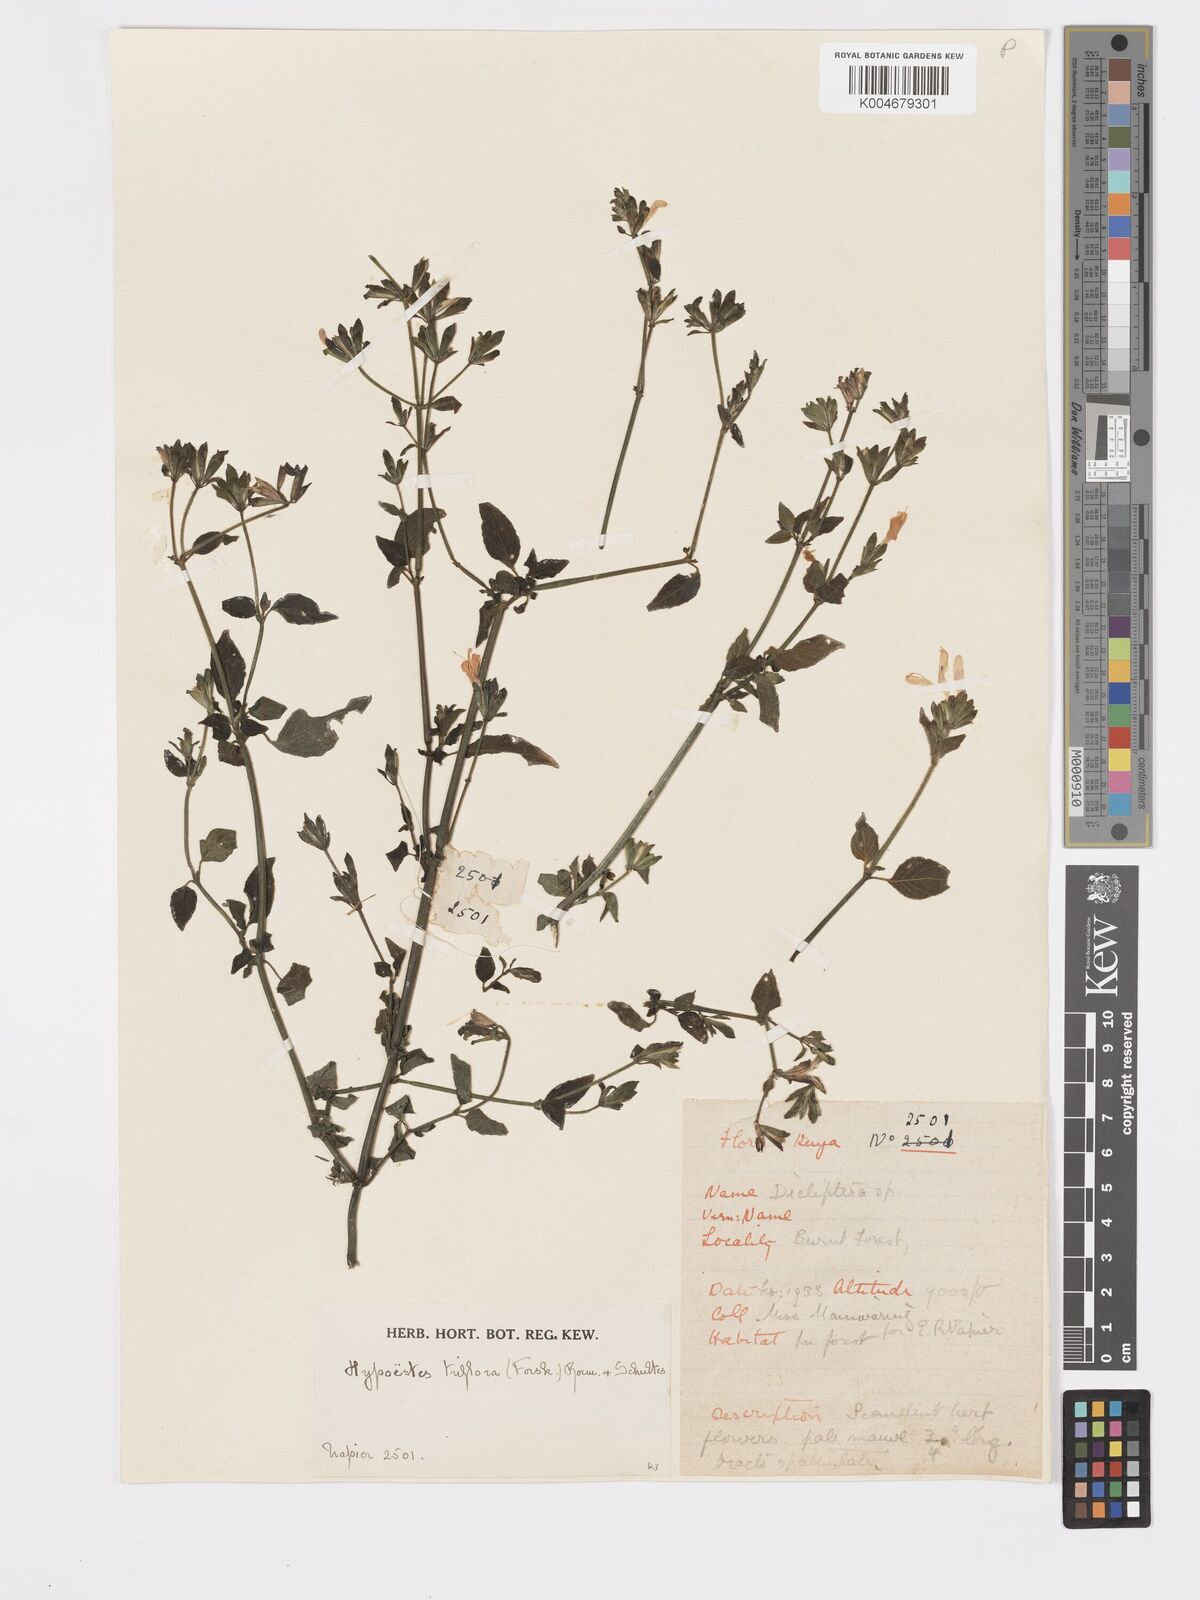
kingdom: Plantae
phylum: Tracheophyta
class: Magnoliopsida
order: Lamiales
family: Acanthaceae
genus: Hypoestes
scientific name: Hypoestes triflora
